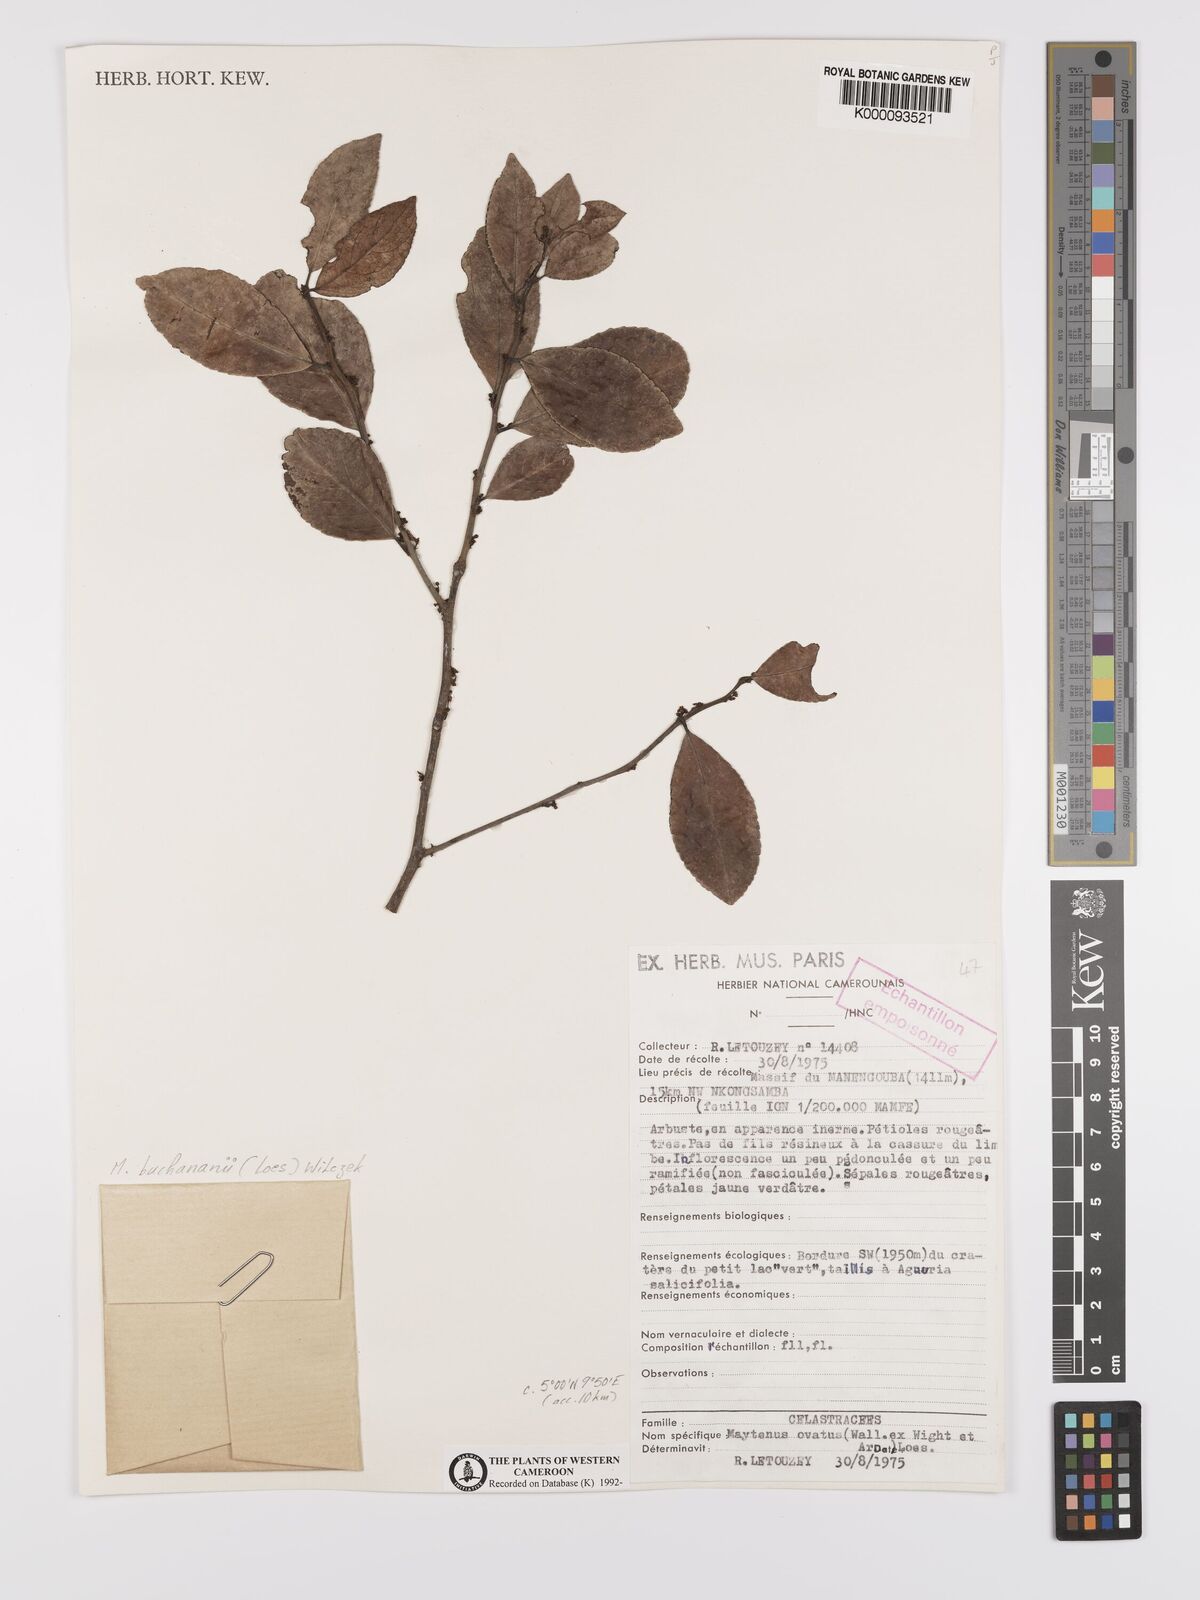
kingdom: Plantae
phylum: Tracheophyta
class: Magnoliopsida
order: Celastrales
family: Celastraceae
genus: Gymnosporia
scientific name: Gymnosporia buchananii
